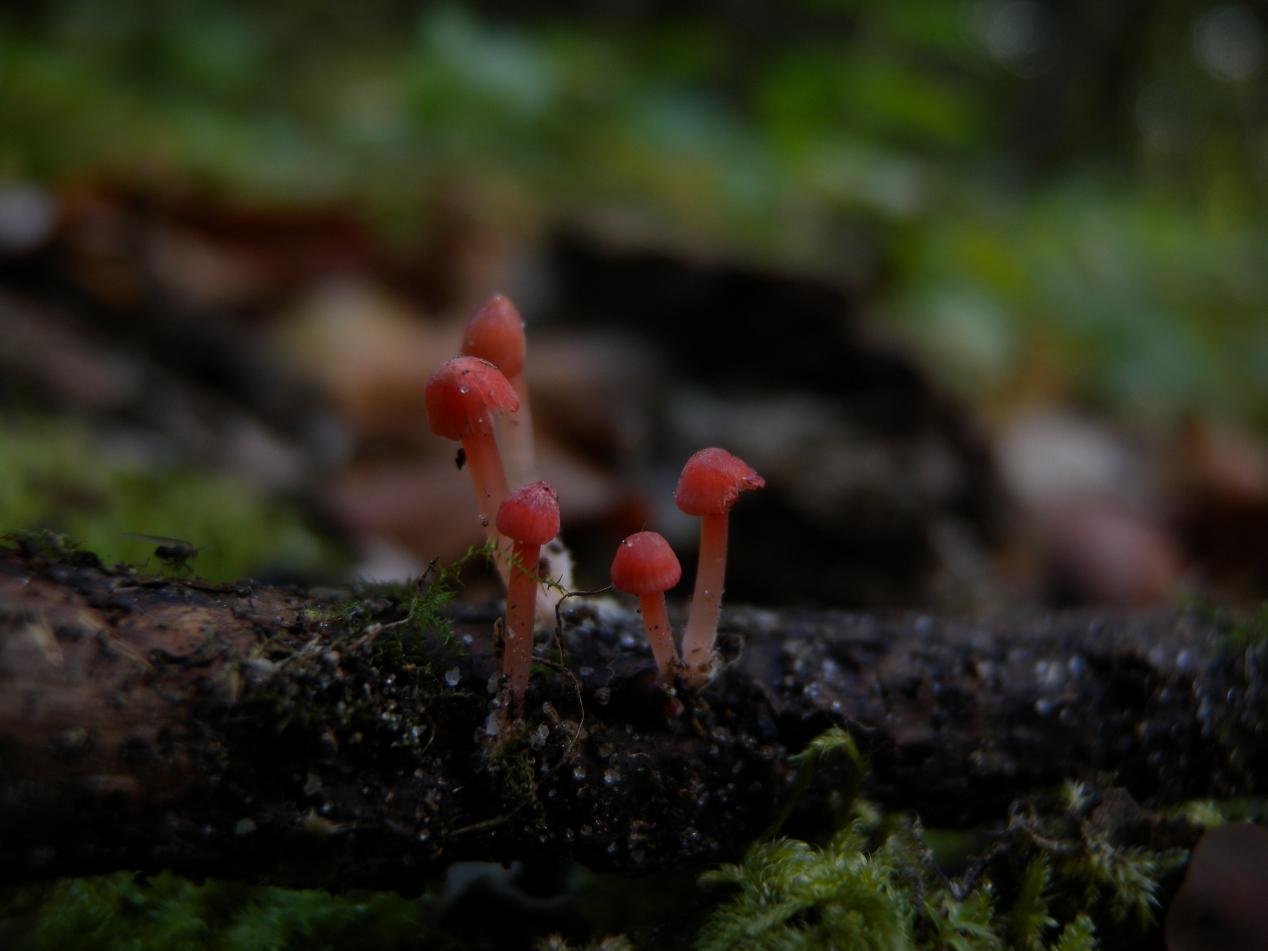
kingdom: Fungi
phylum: Basidiomycota
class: Agaricomycetes
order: Agaricales
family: Mycenaceae
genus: Mycena
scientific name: Mycena coccinea
